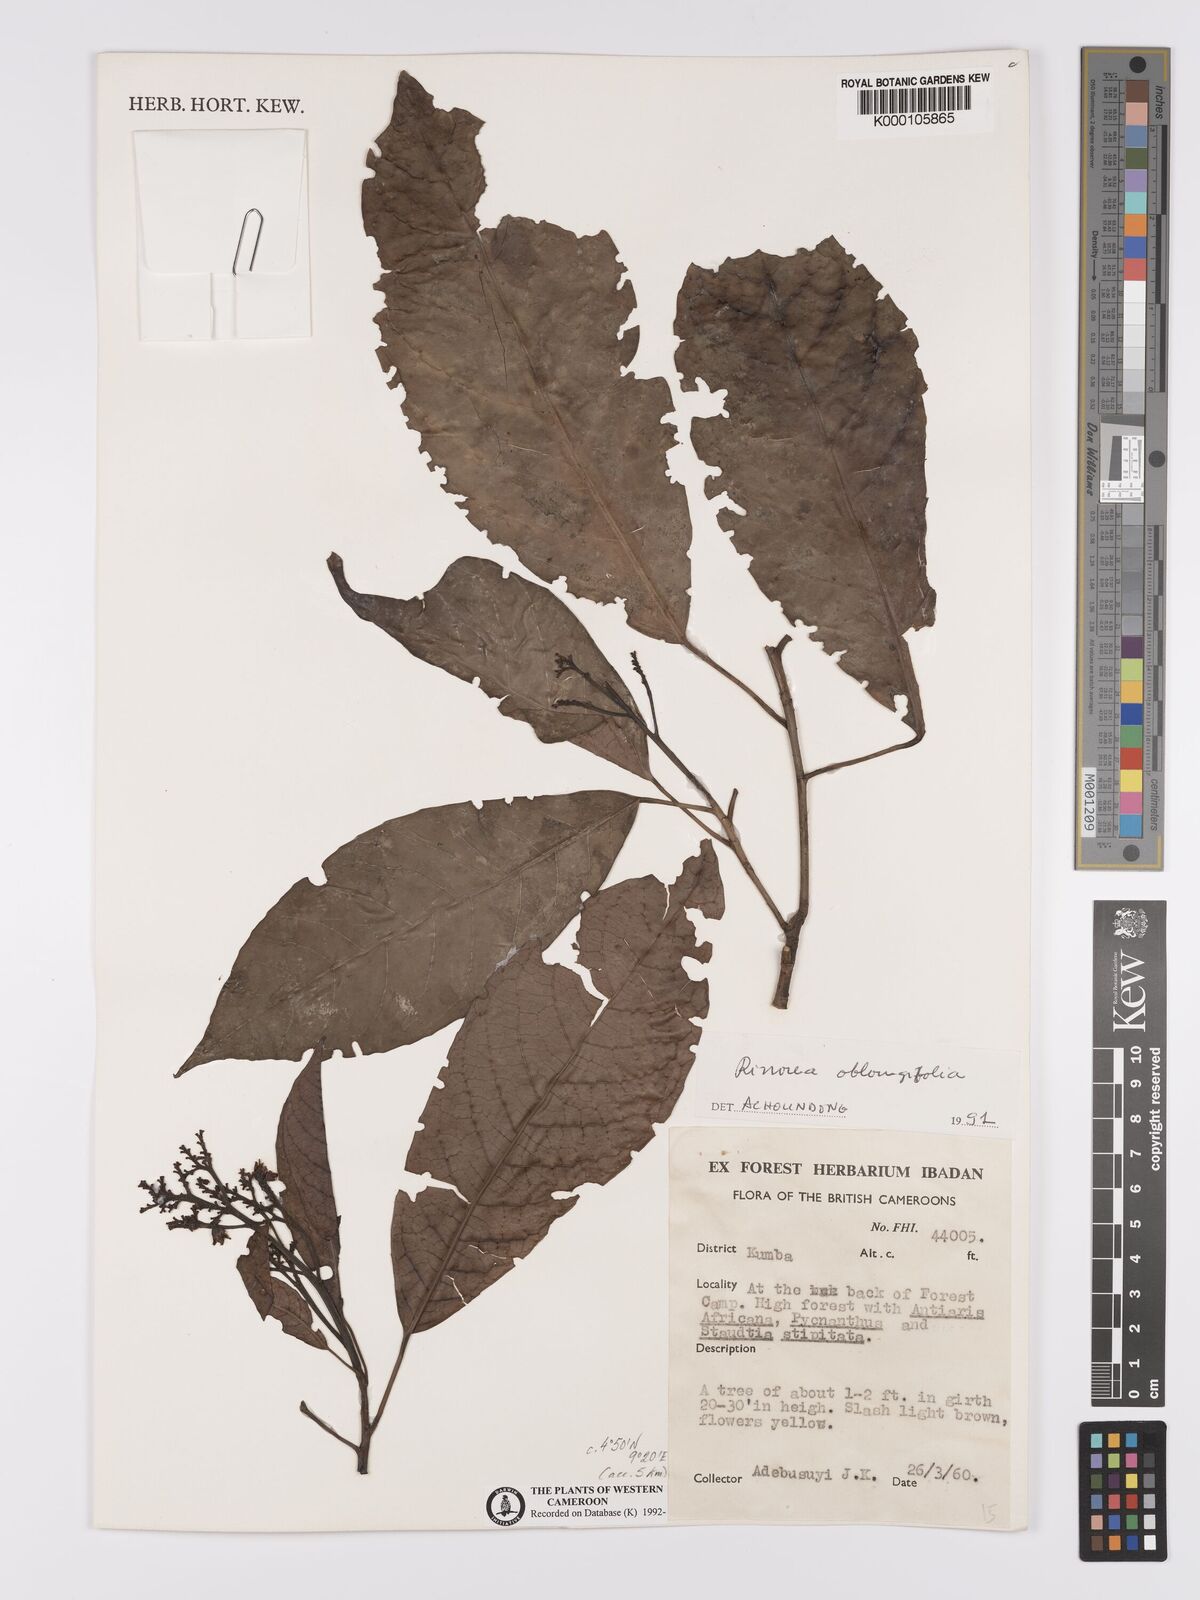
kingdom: Plantae
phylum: Tracheophyta
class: Magnoliopsida
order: Apiales
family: Pittosporaceae
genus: Marianthus
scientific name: Marianthus coeruleopunctatus
